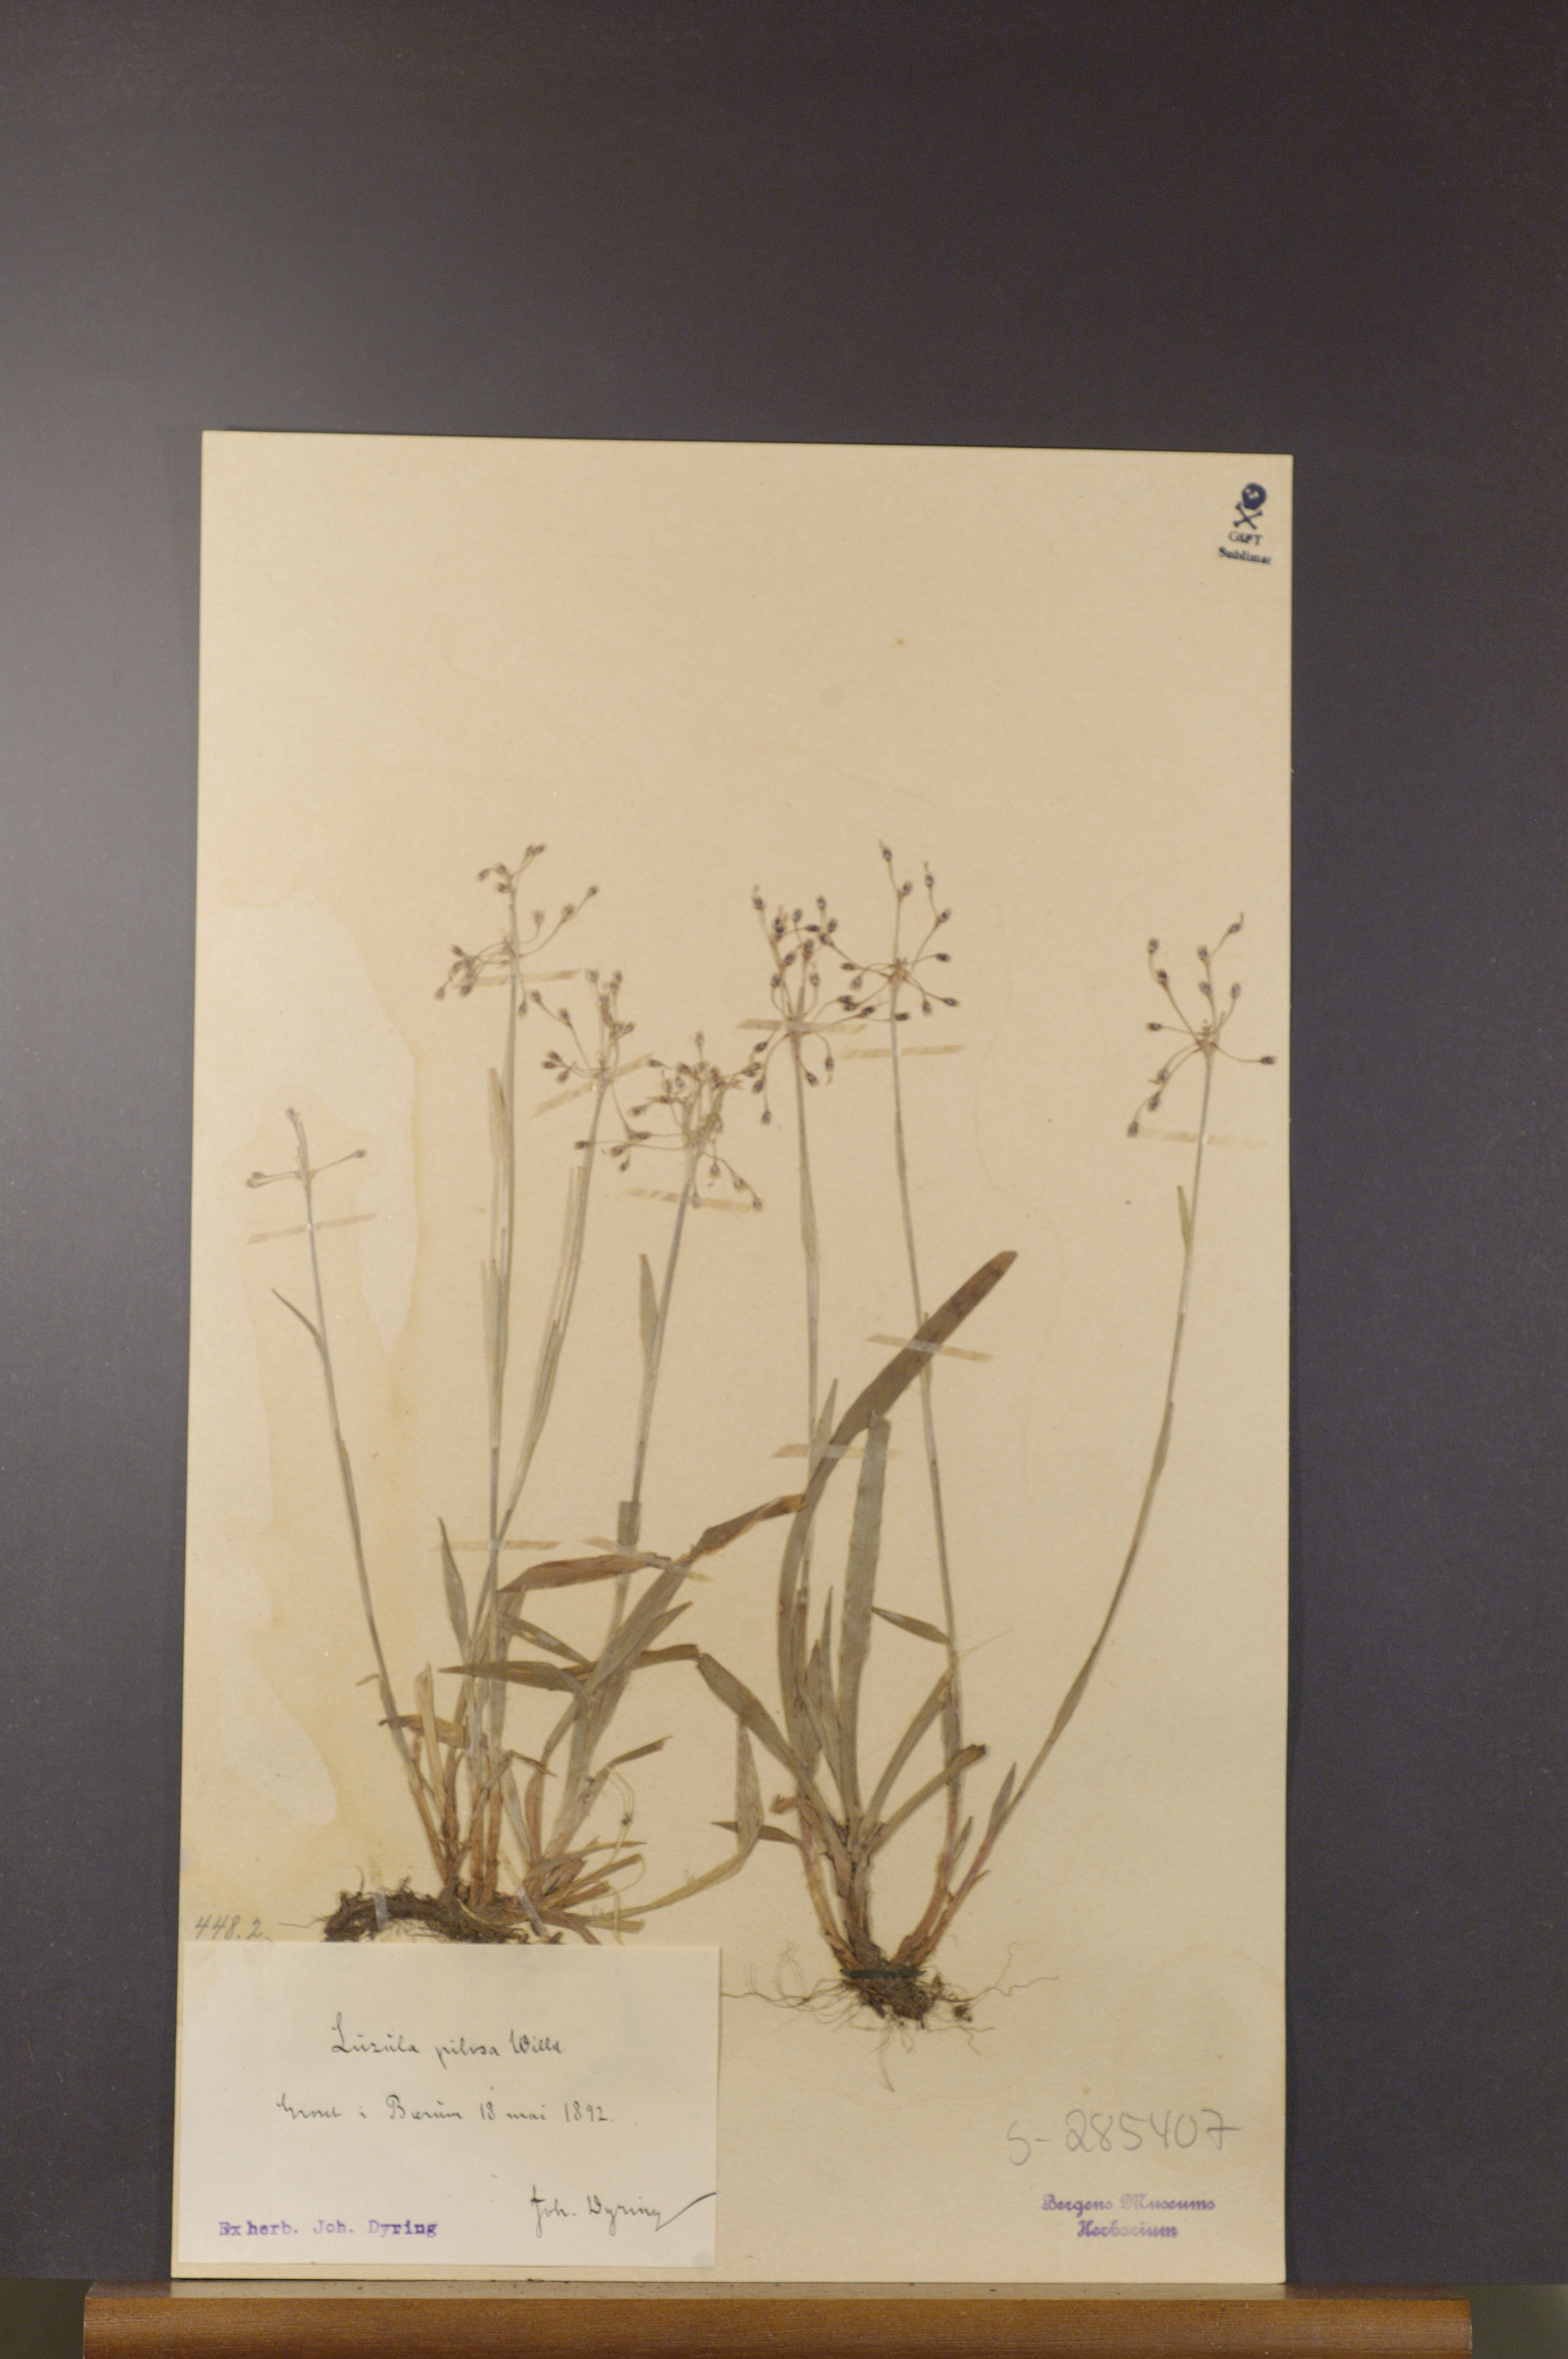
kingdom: Plantae
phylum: Tracheophyta
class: Liliopsida
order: Poales
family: Juncaceae
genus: Luzula
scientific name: Luzula pilosa
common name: Hairy wood-rush
